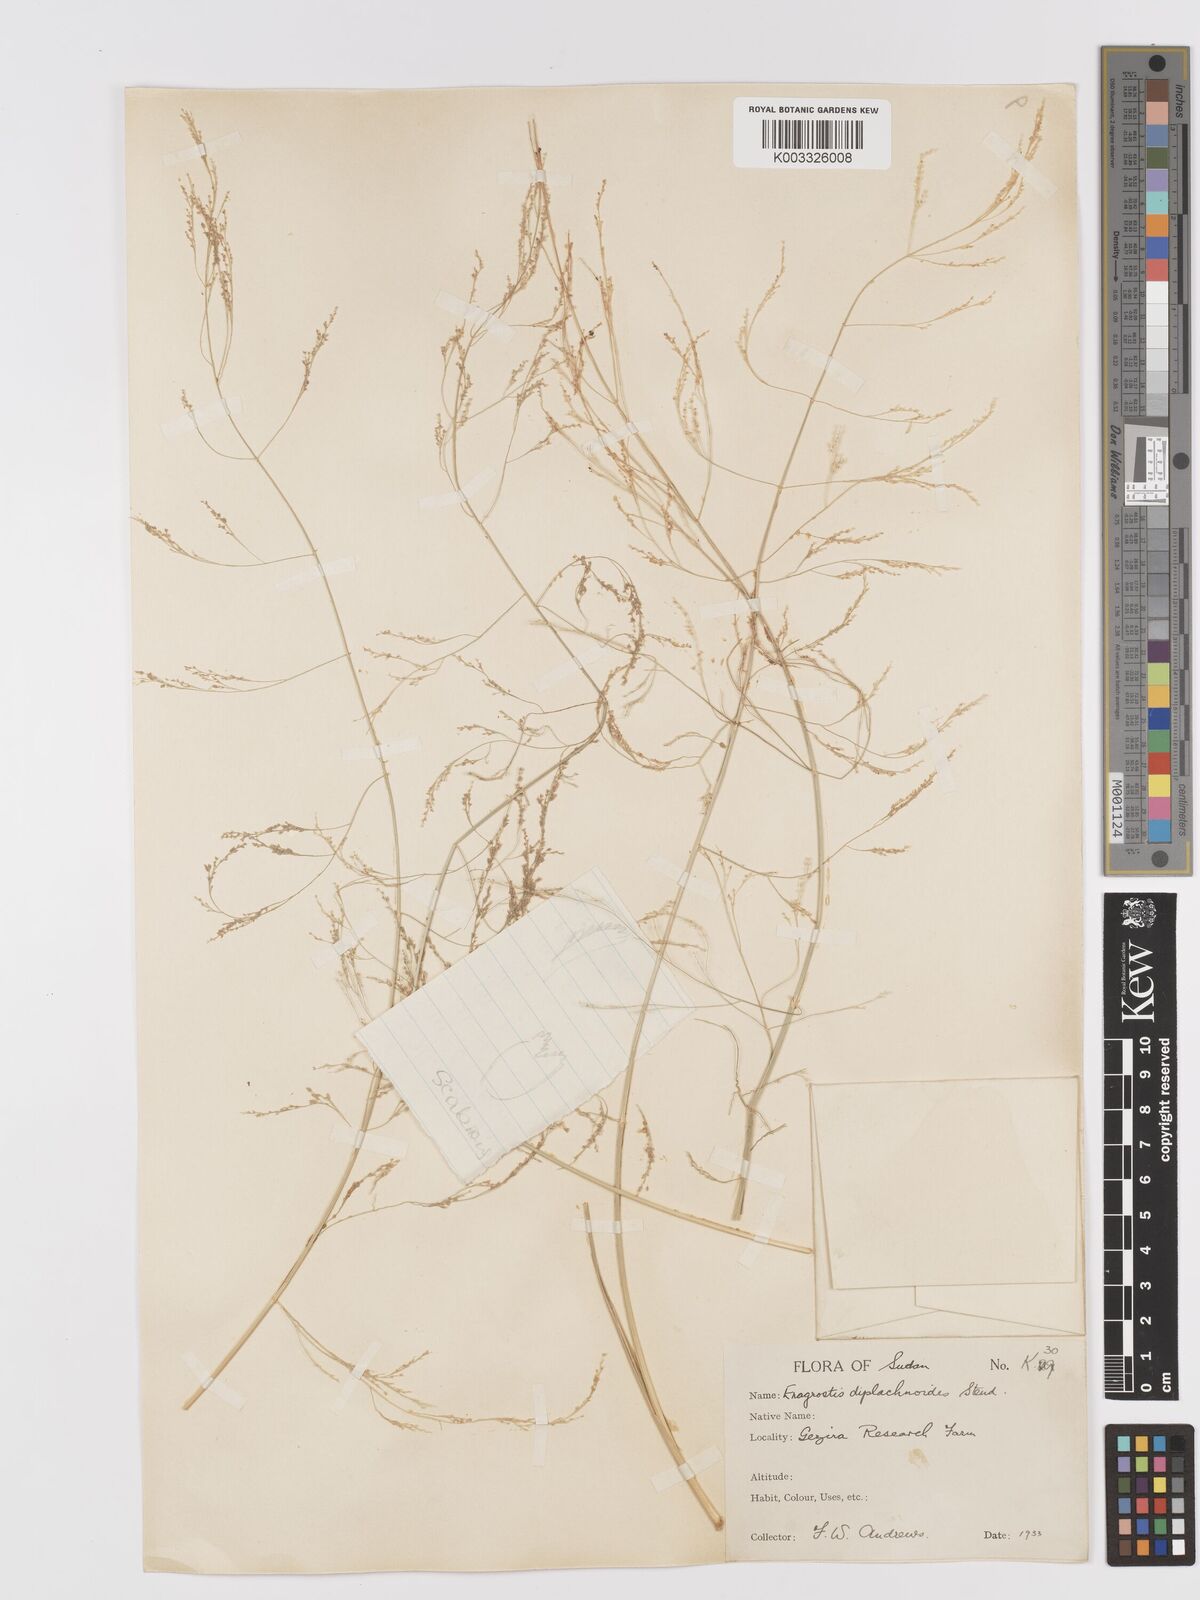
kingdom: Plantae
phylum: Tracheophyta
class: Liliopsida
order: Poales
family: Poaceae
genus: Eragrostis
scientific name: Eragrostis japonica
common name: Pond lovegrass
